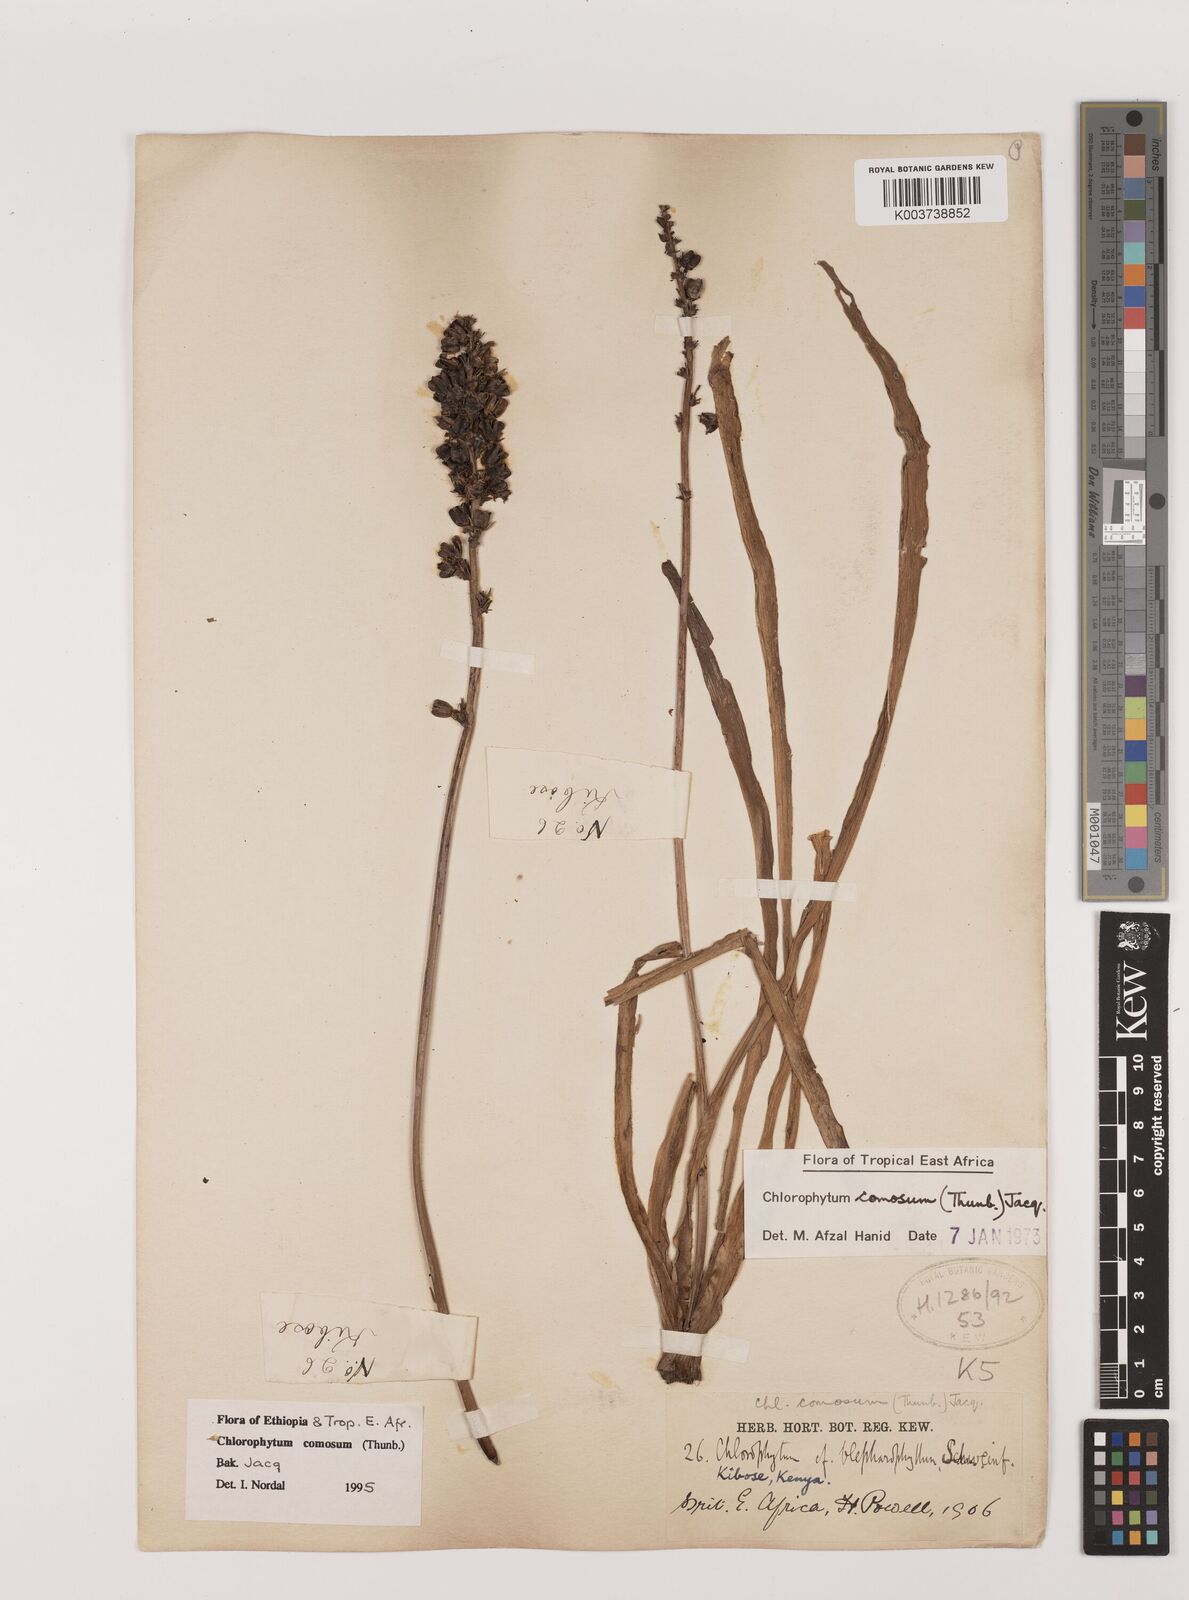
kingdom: Plantae
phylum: Tracheophyta
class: Liliopsida
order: Asparagales
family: Asparagaceae
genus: Chlorophytum
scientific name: Chlorophytum comosum
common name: Spider plant
